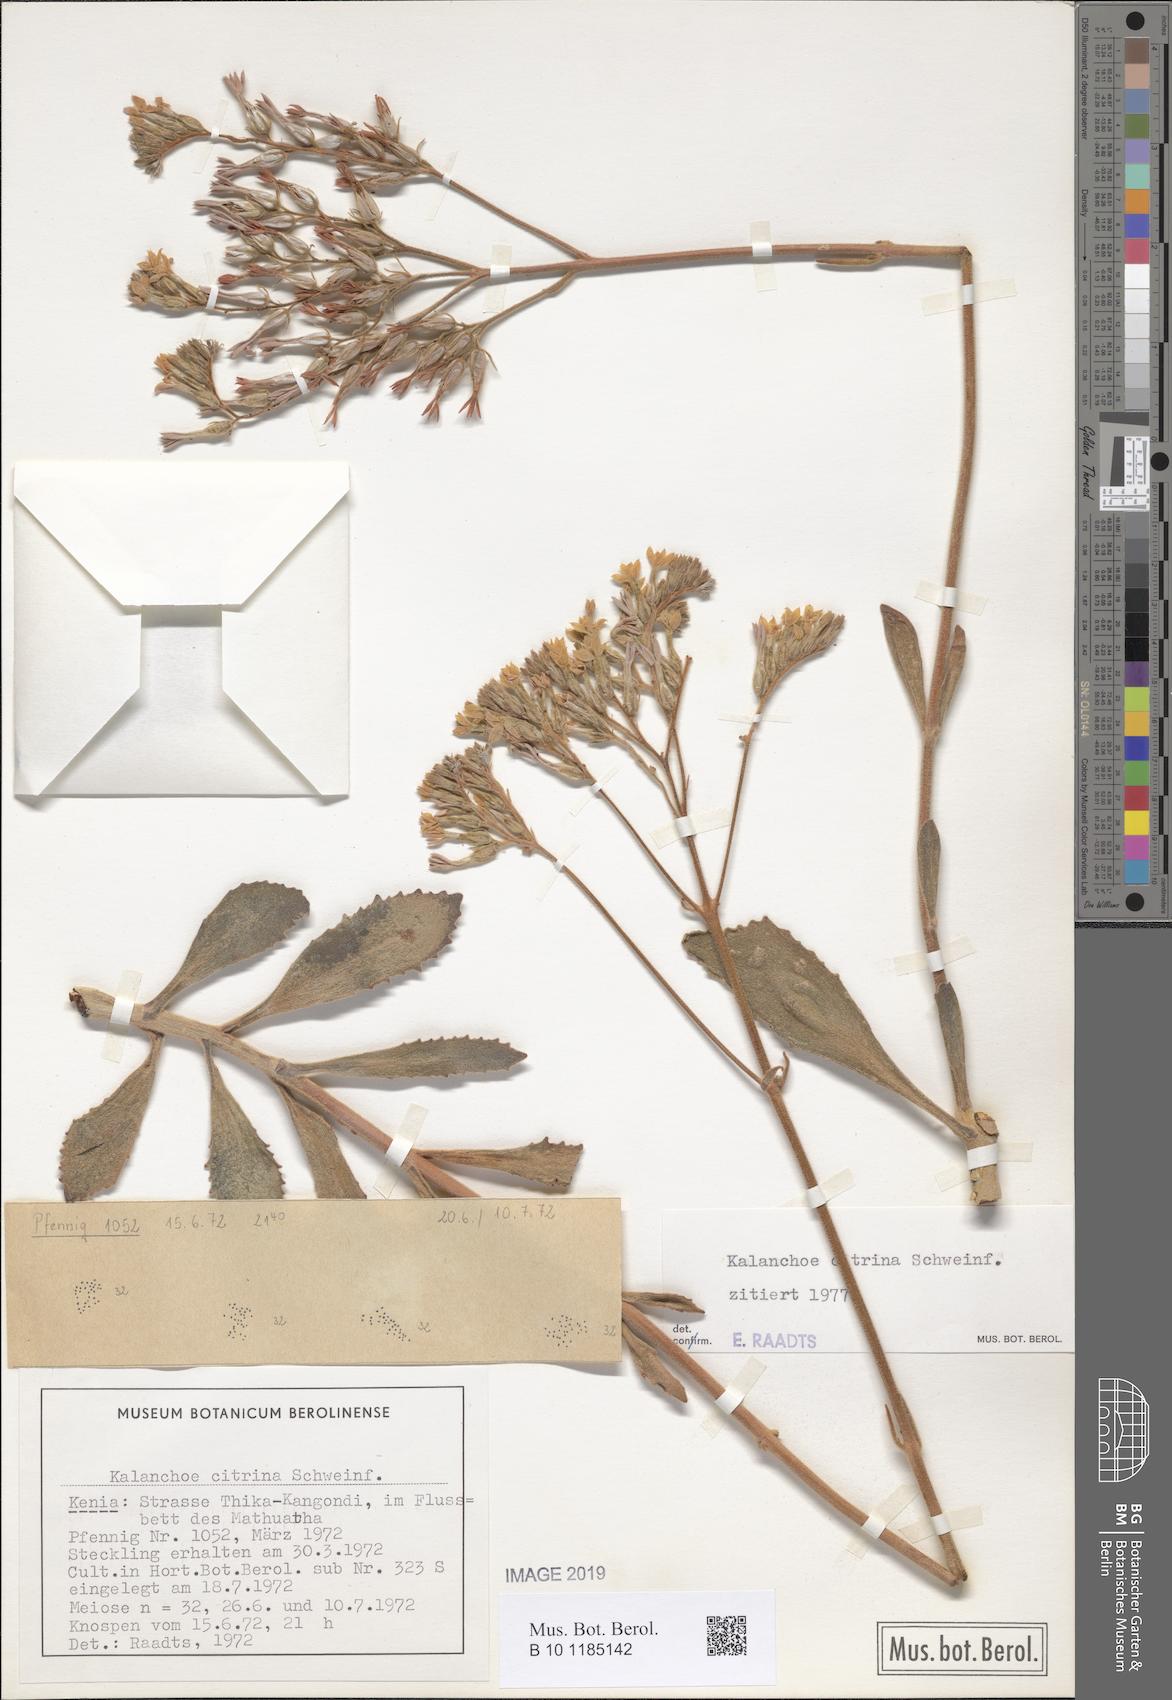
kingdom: Plantae
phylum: Tracheophyta
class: Magnoliopsida
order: Saxifragales
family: Crassulaceae
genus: Kalanchoe
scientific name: Kalanchoe citrina
